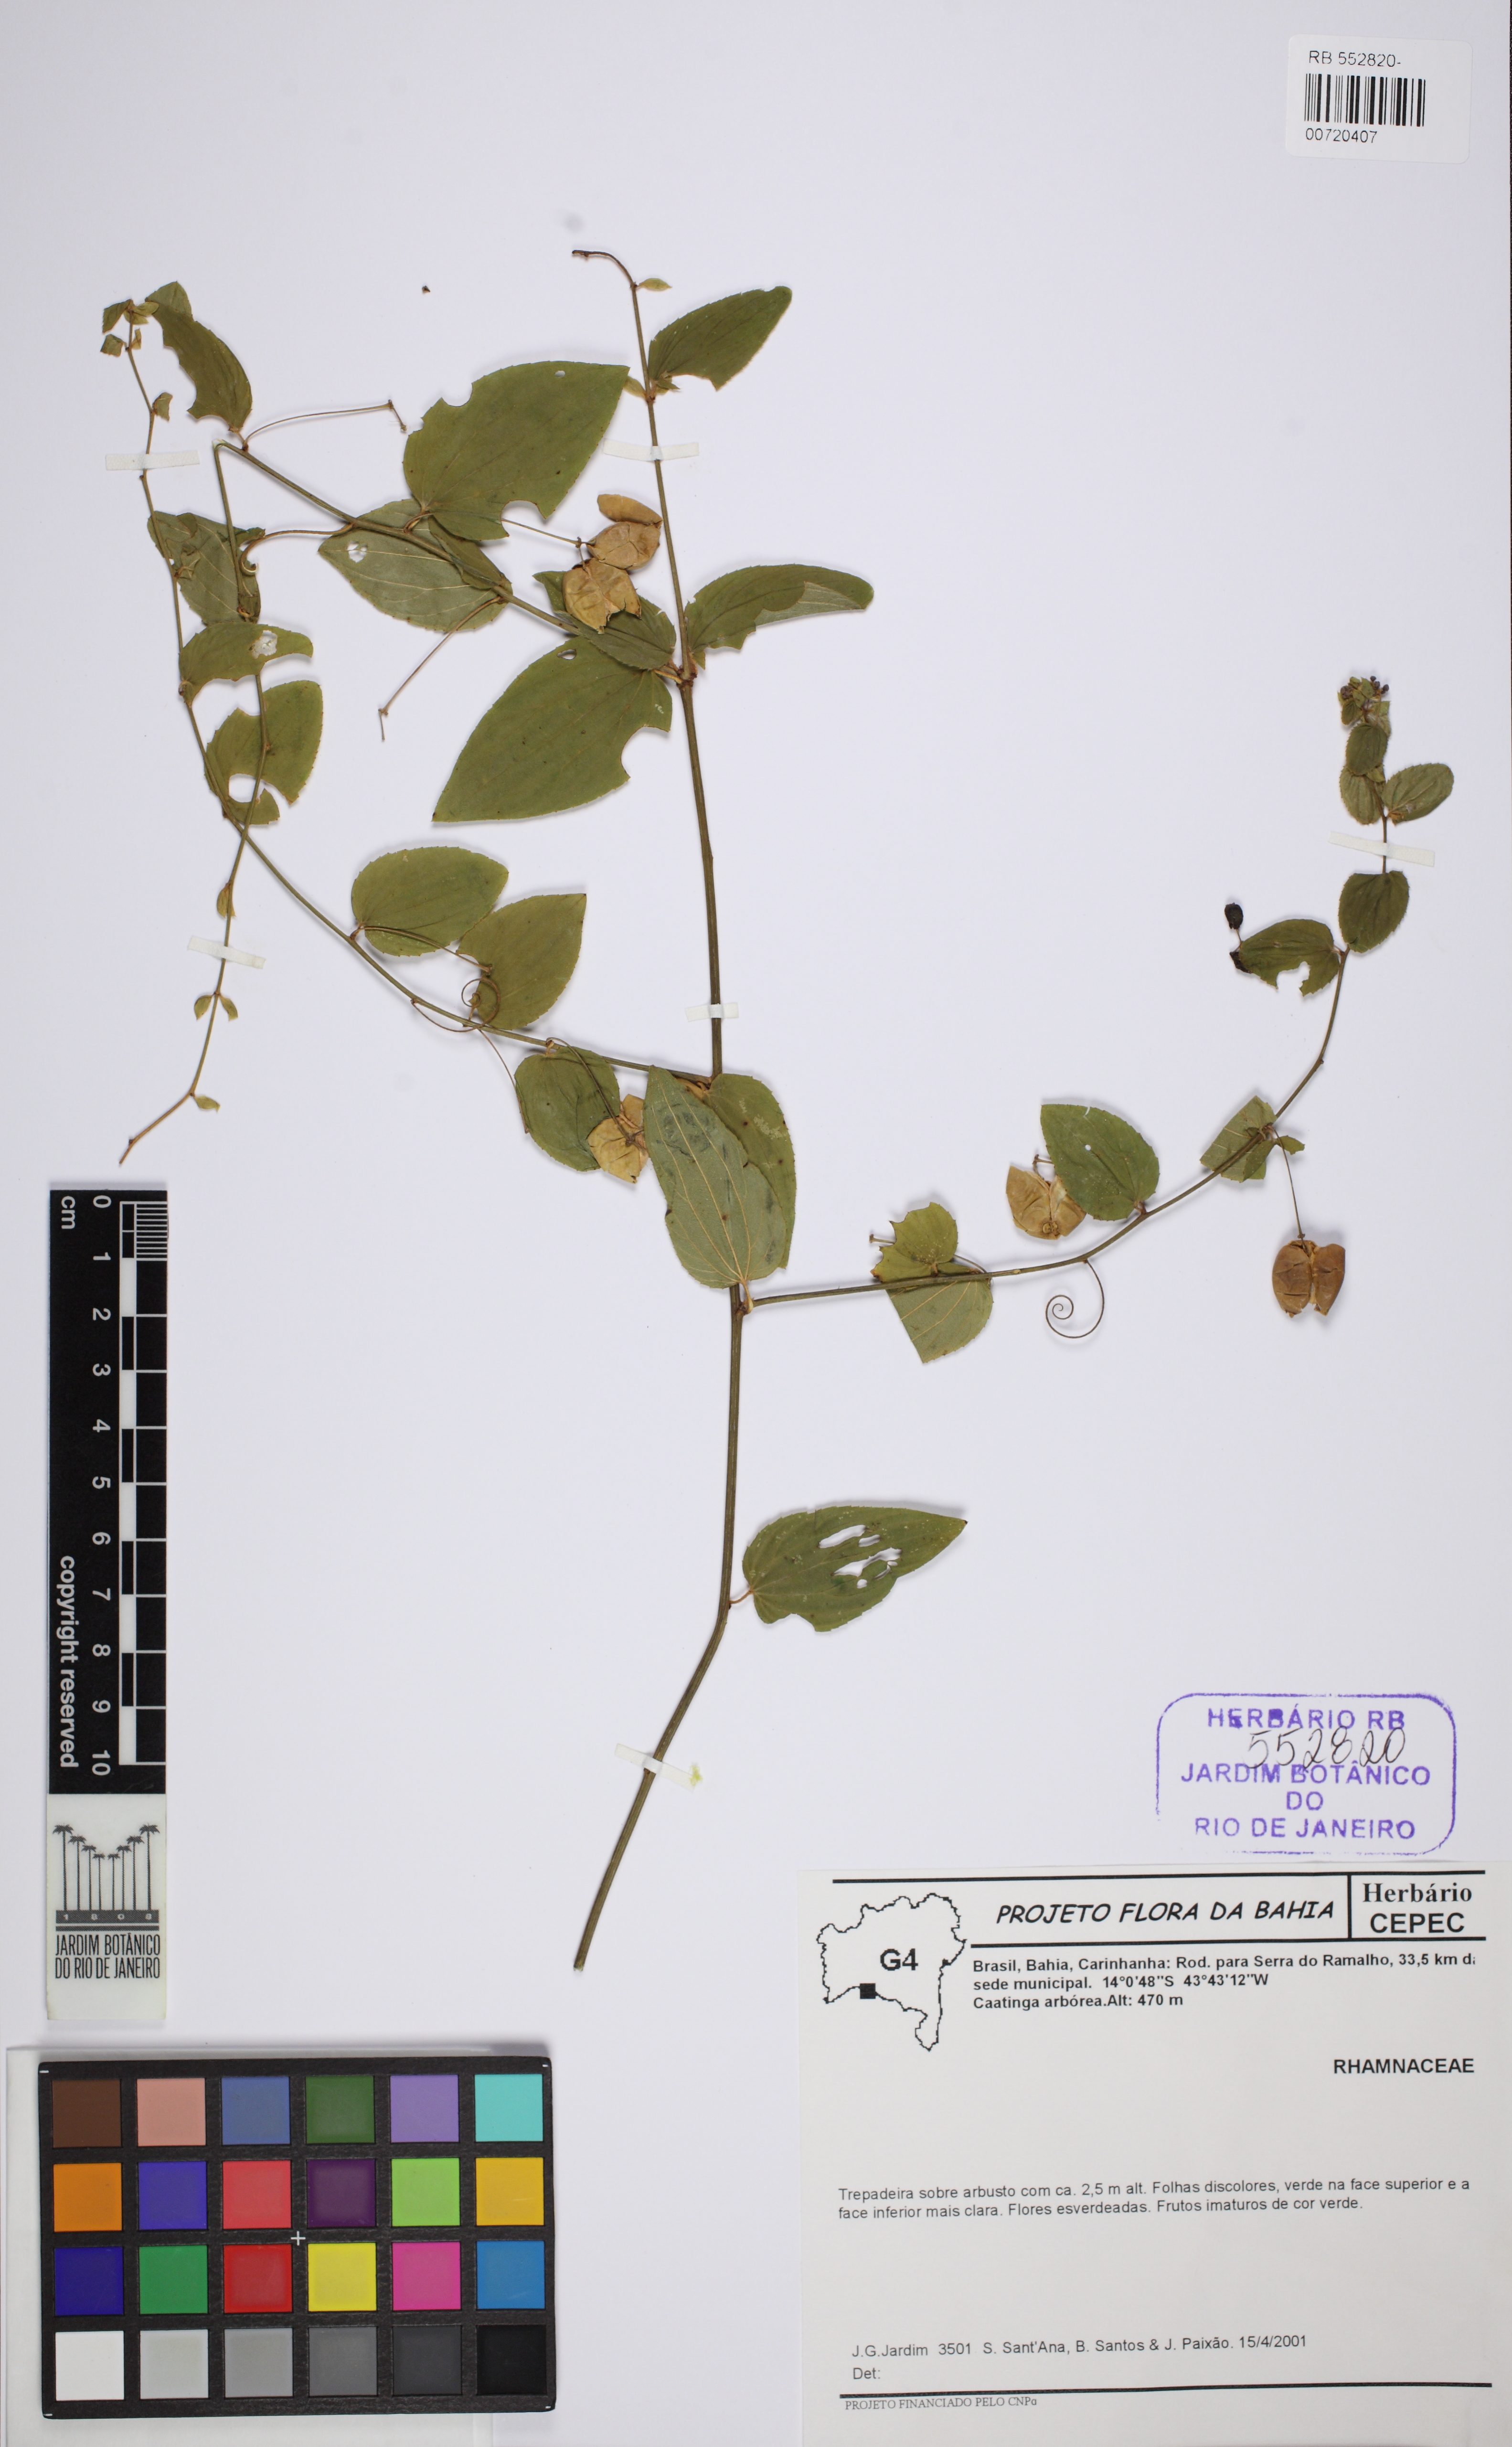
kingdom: Plantae
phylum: Tracheophyta
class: Magnoliopsida
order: Rosales
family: Rhamnaceae
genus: Alvimiantha
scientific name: Alvimiantha tricamerata
